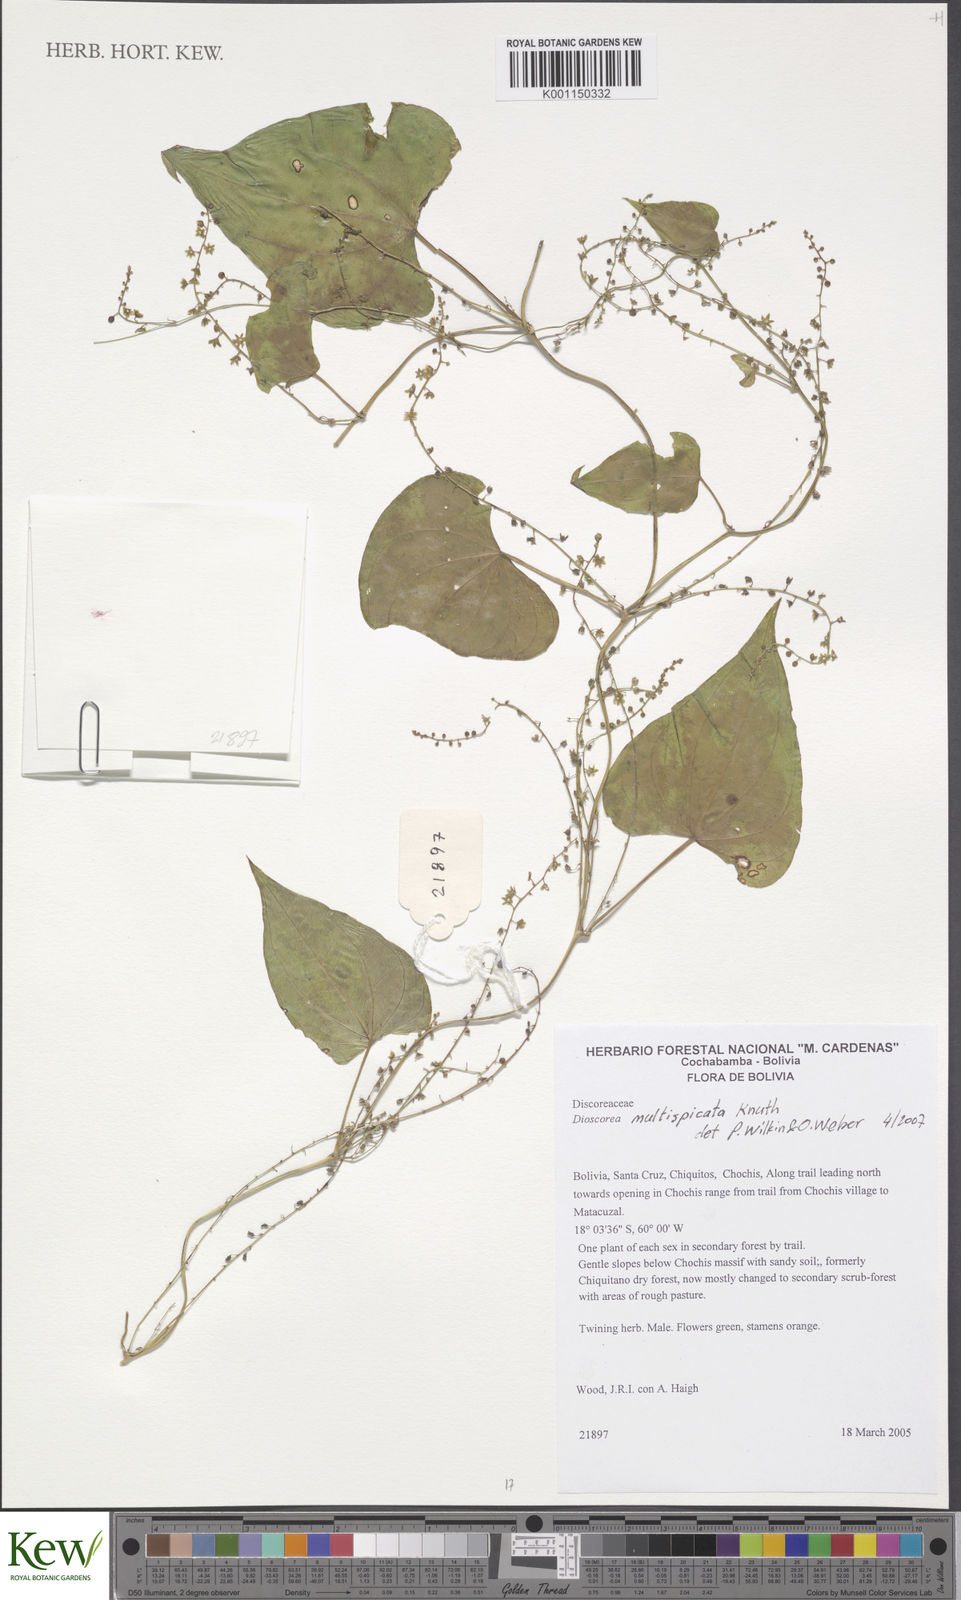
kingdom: Plantae
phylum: Tracheophyta
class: Liliopsida
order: Dioscoreales
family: Dioscoreaceae
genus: Dioscorea
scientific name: Dioscorea multispicata
